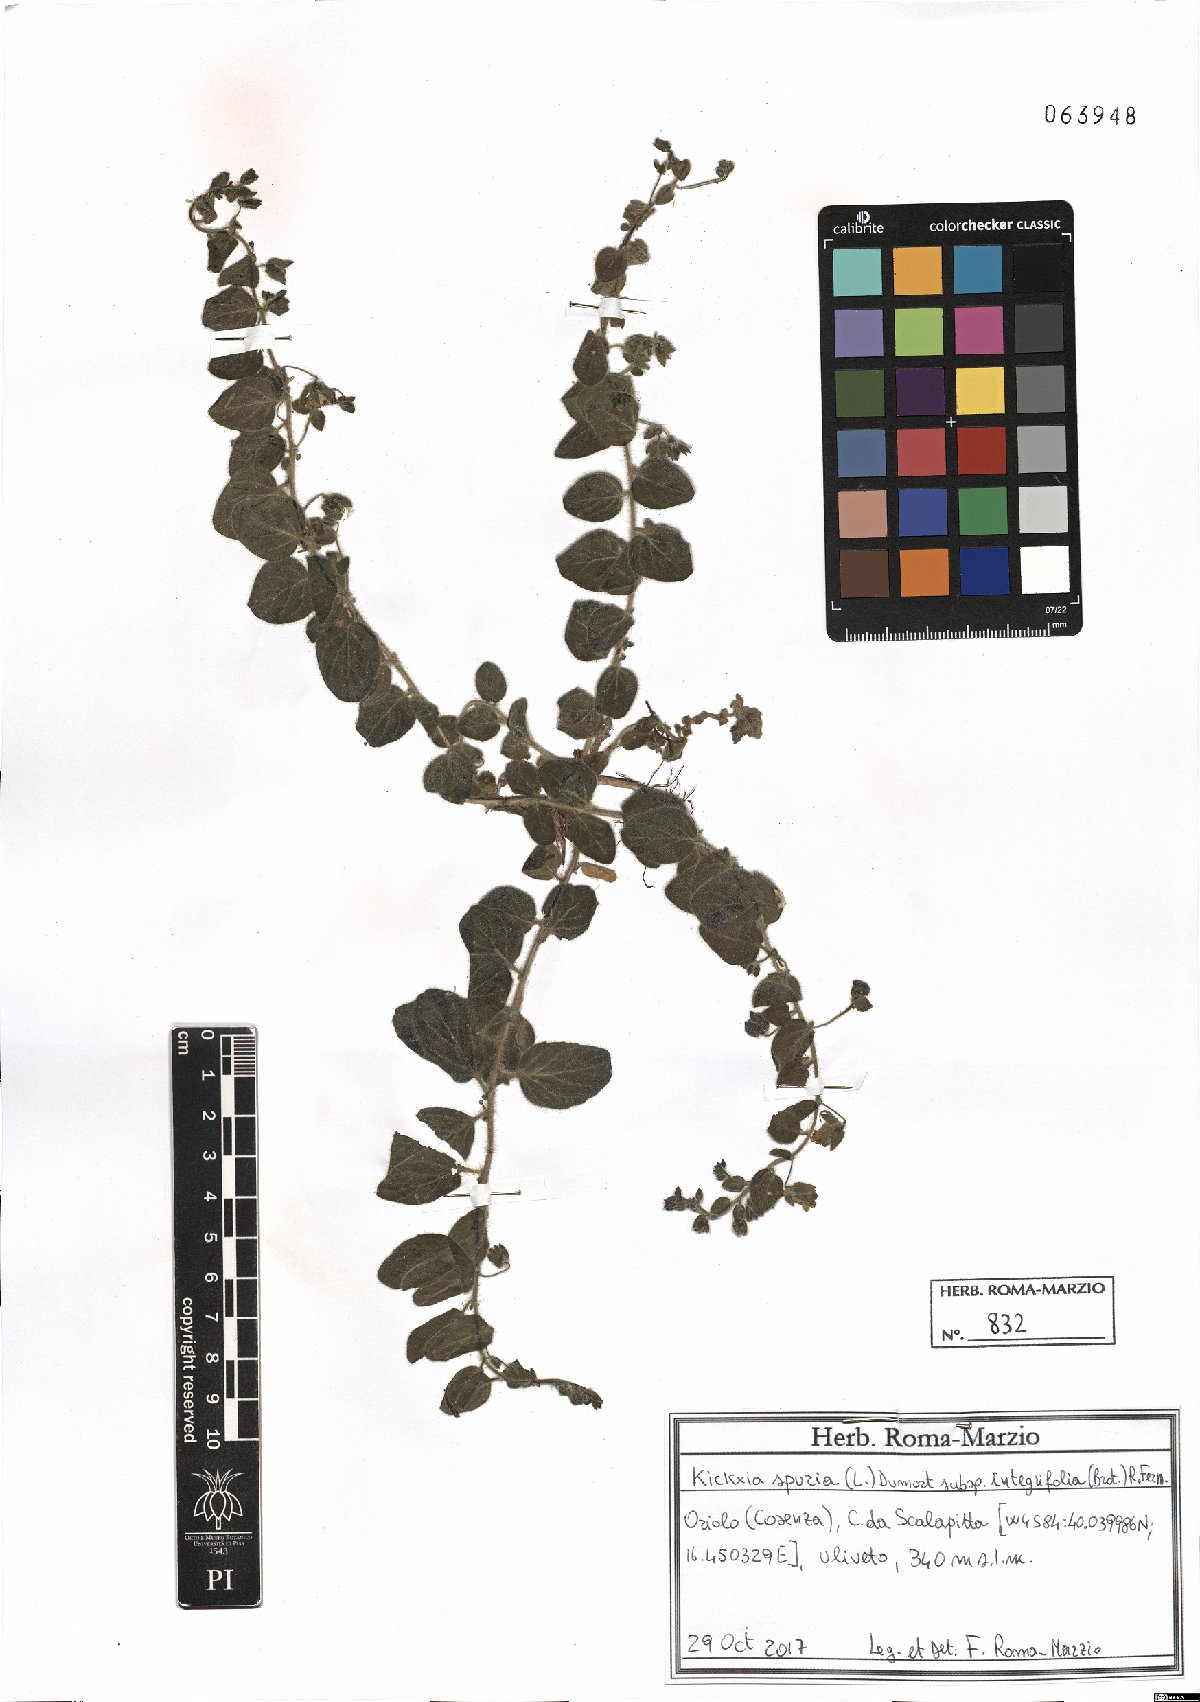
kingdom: Plantae
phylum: Tracheophyta
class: Magnoliopsida
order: Lamiales
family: Plantaginaceae
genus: Kickxia
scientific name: Kickxia spuria
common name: Round-leaved fluellen
